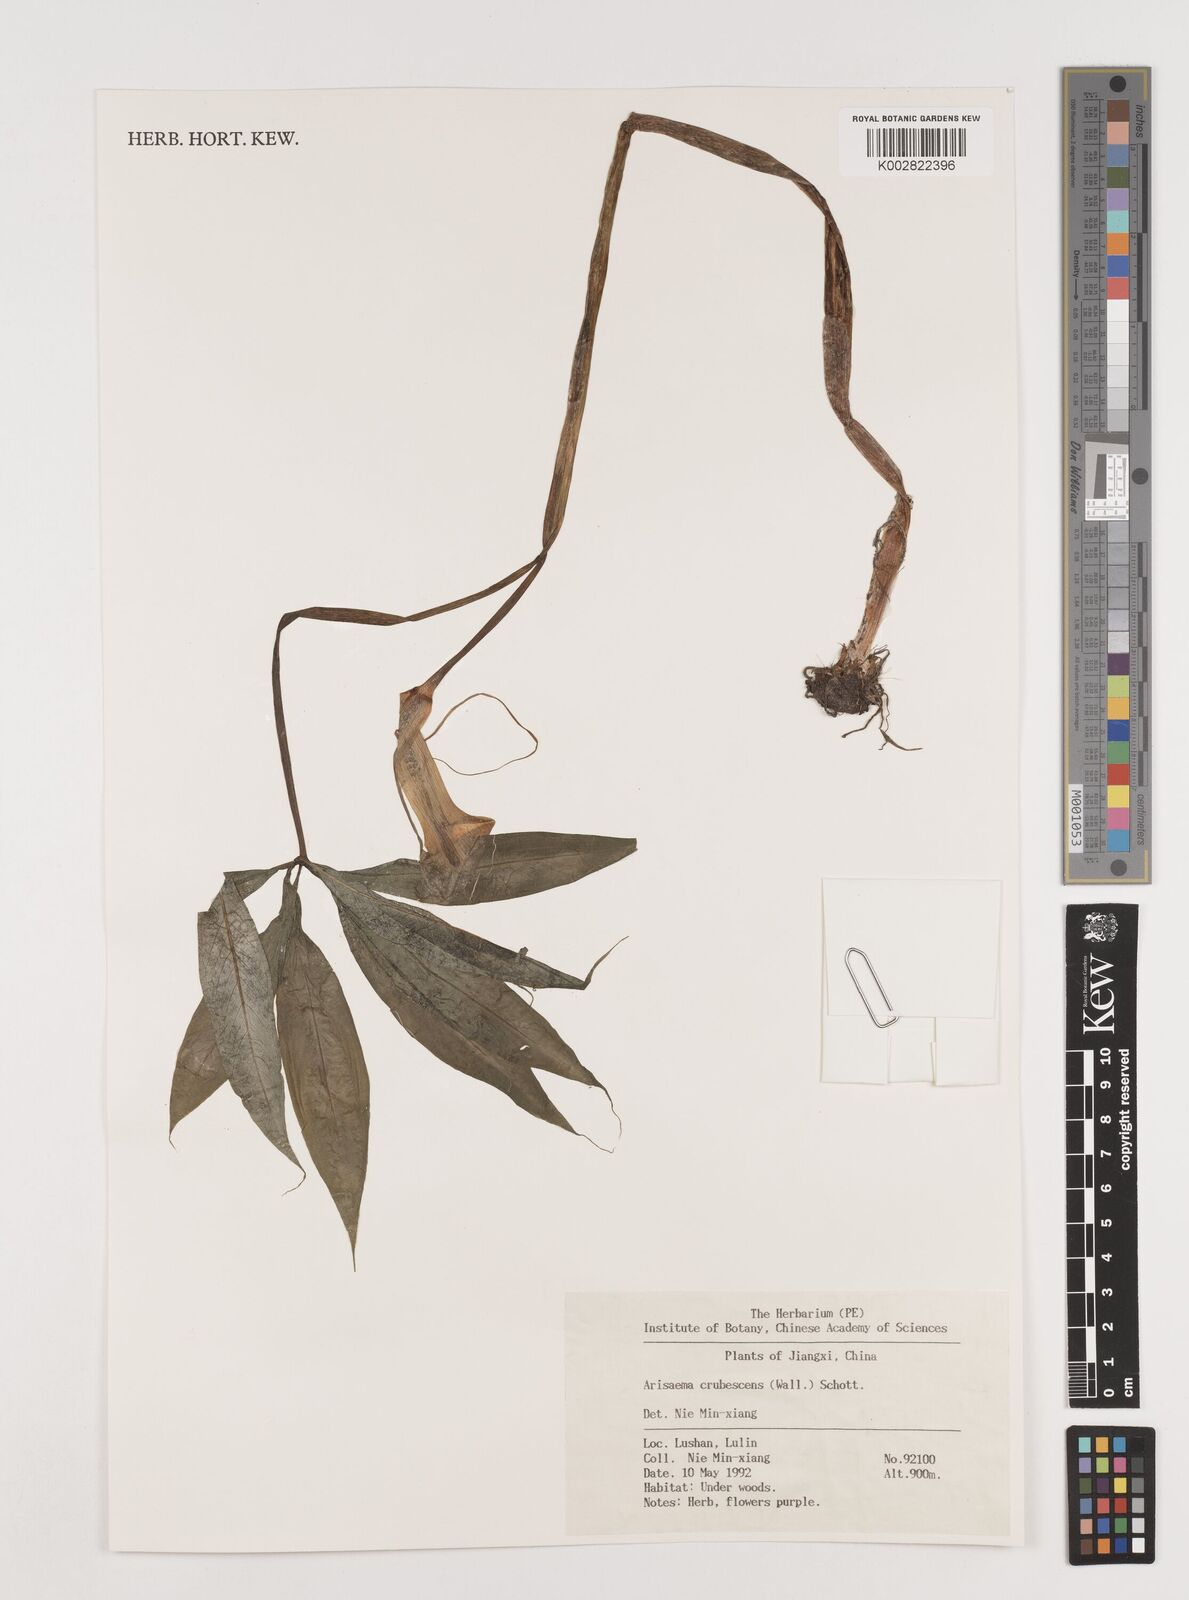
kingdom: Plantae
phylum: Tracheophyta
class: Liliopsida
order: Alismatales
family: Araceae
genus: Arisaema
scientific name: Arisaema erubescens
